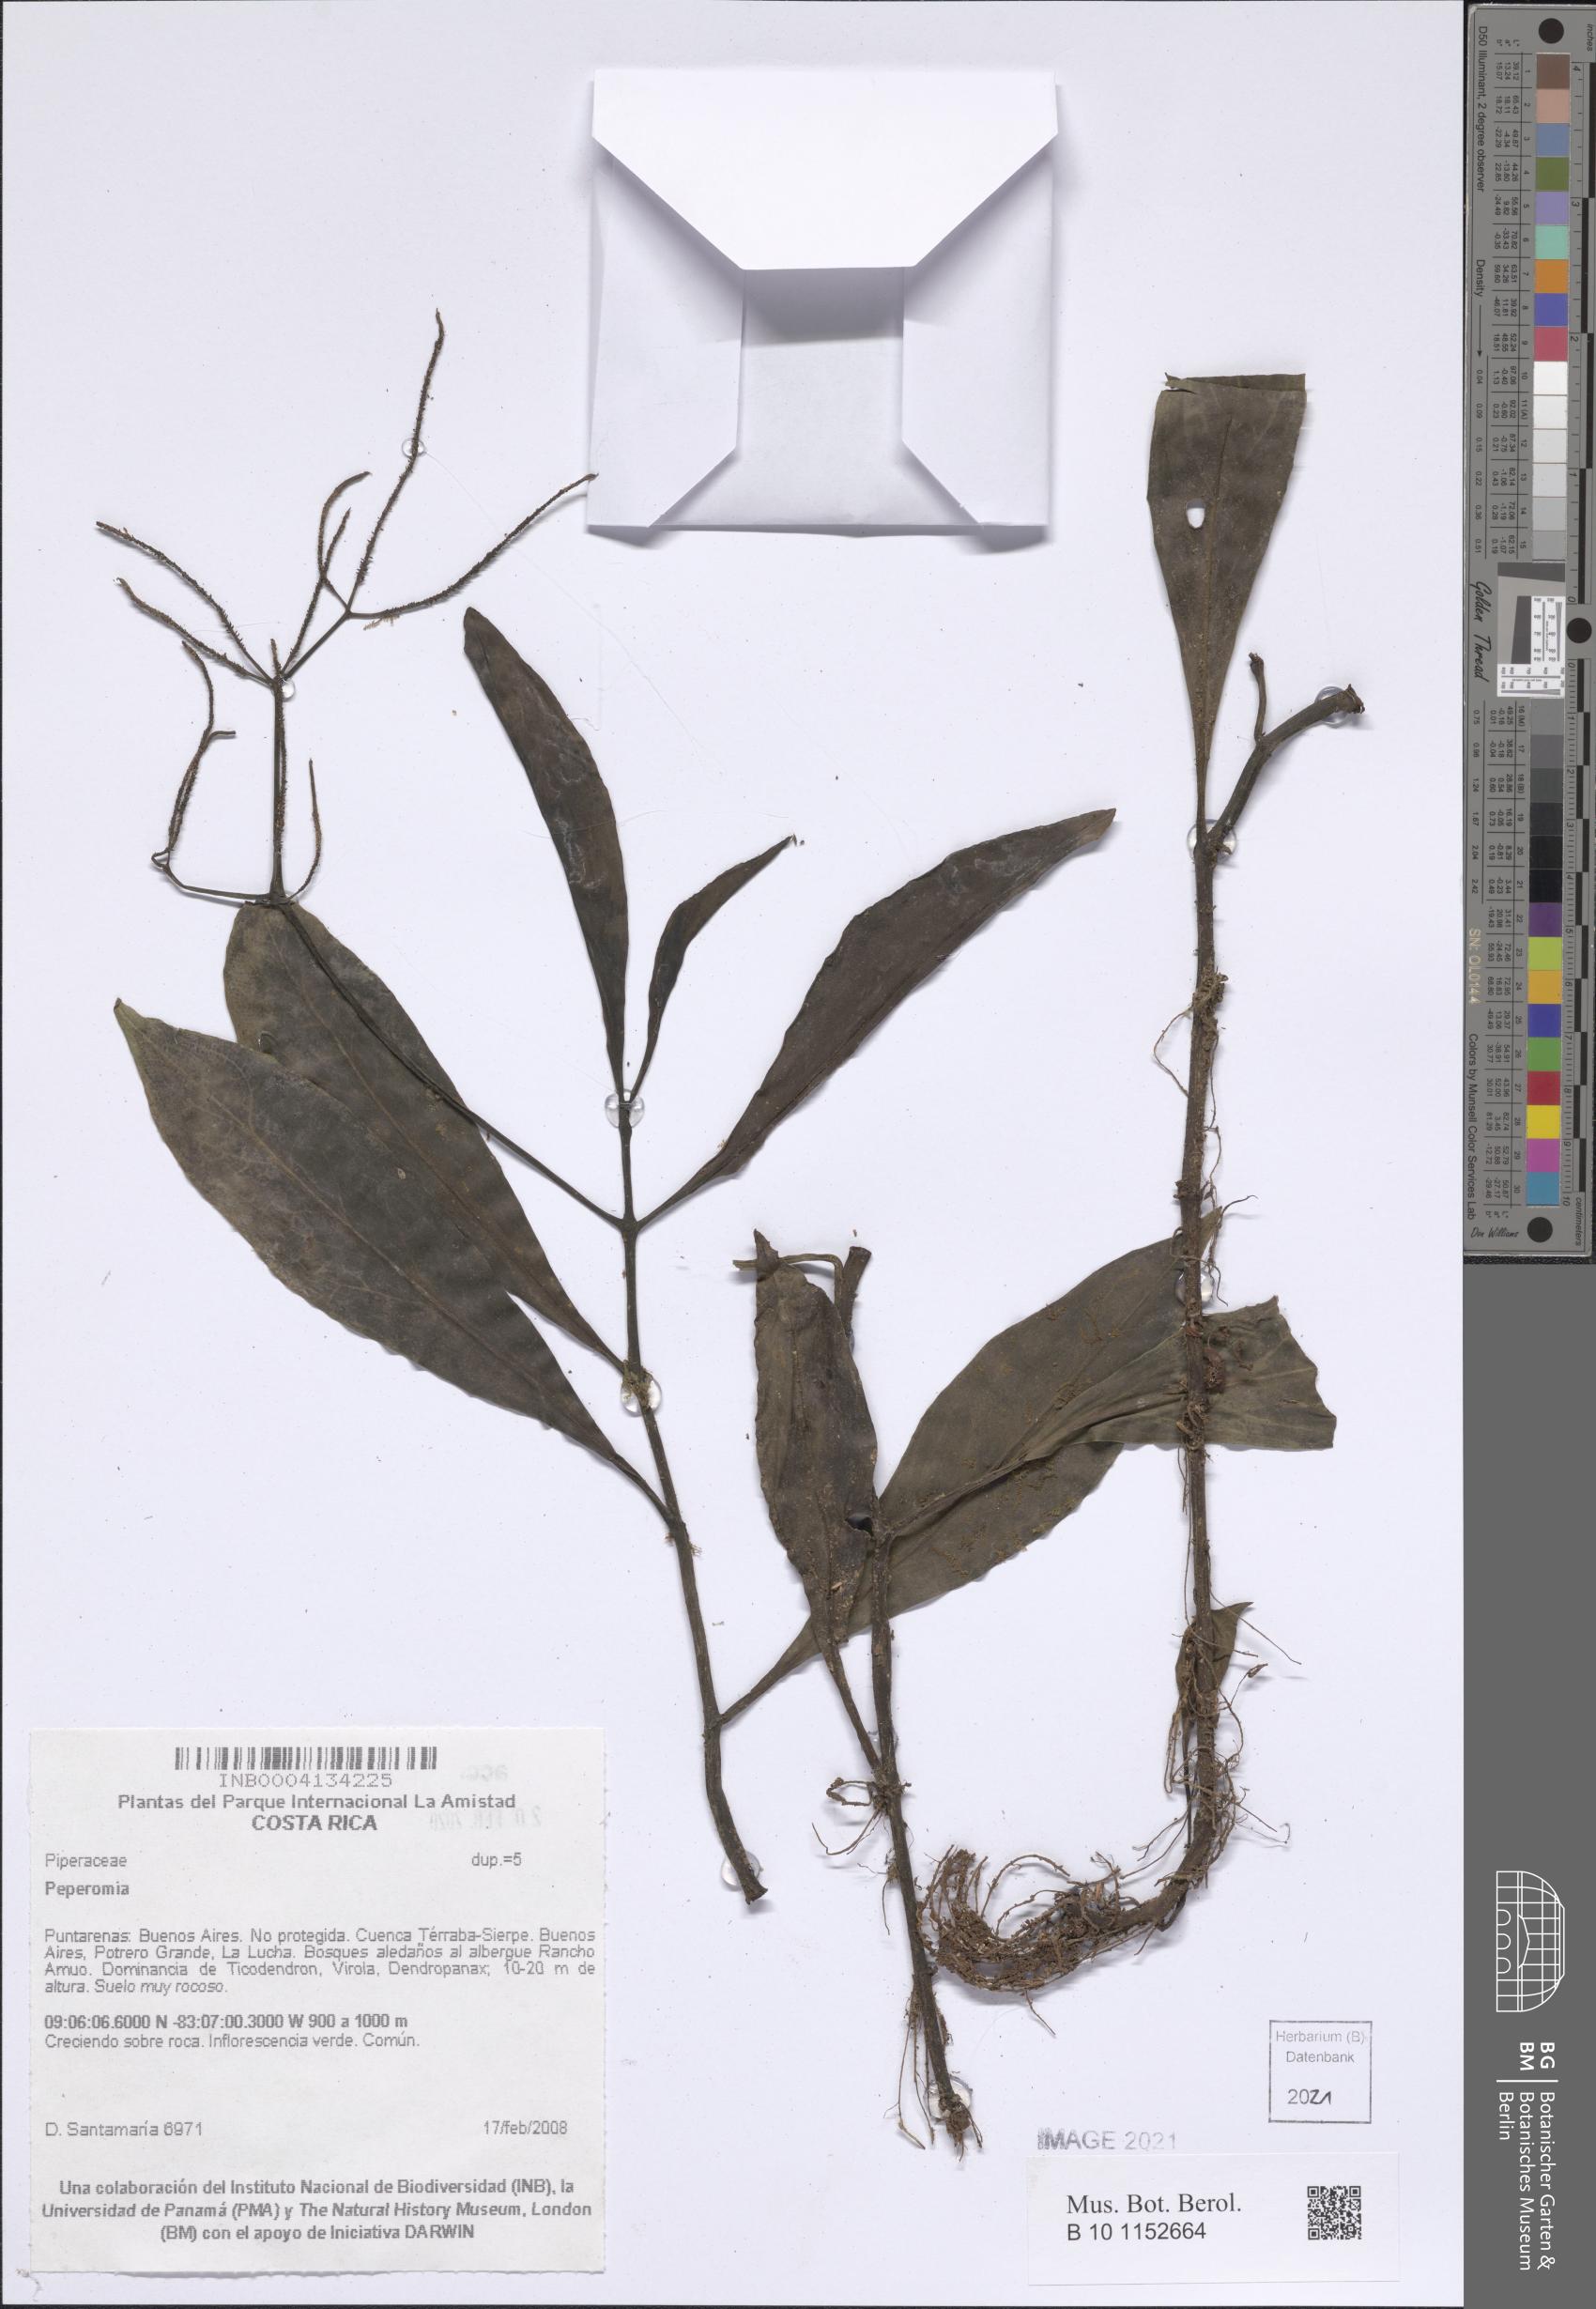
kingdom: Plantae
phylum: Tracheophyta
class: Magnoliopsida
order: Piperales
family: Piperaceae
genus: Peperomia
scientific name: Peperomia
